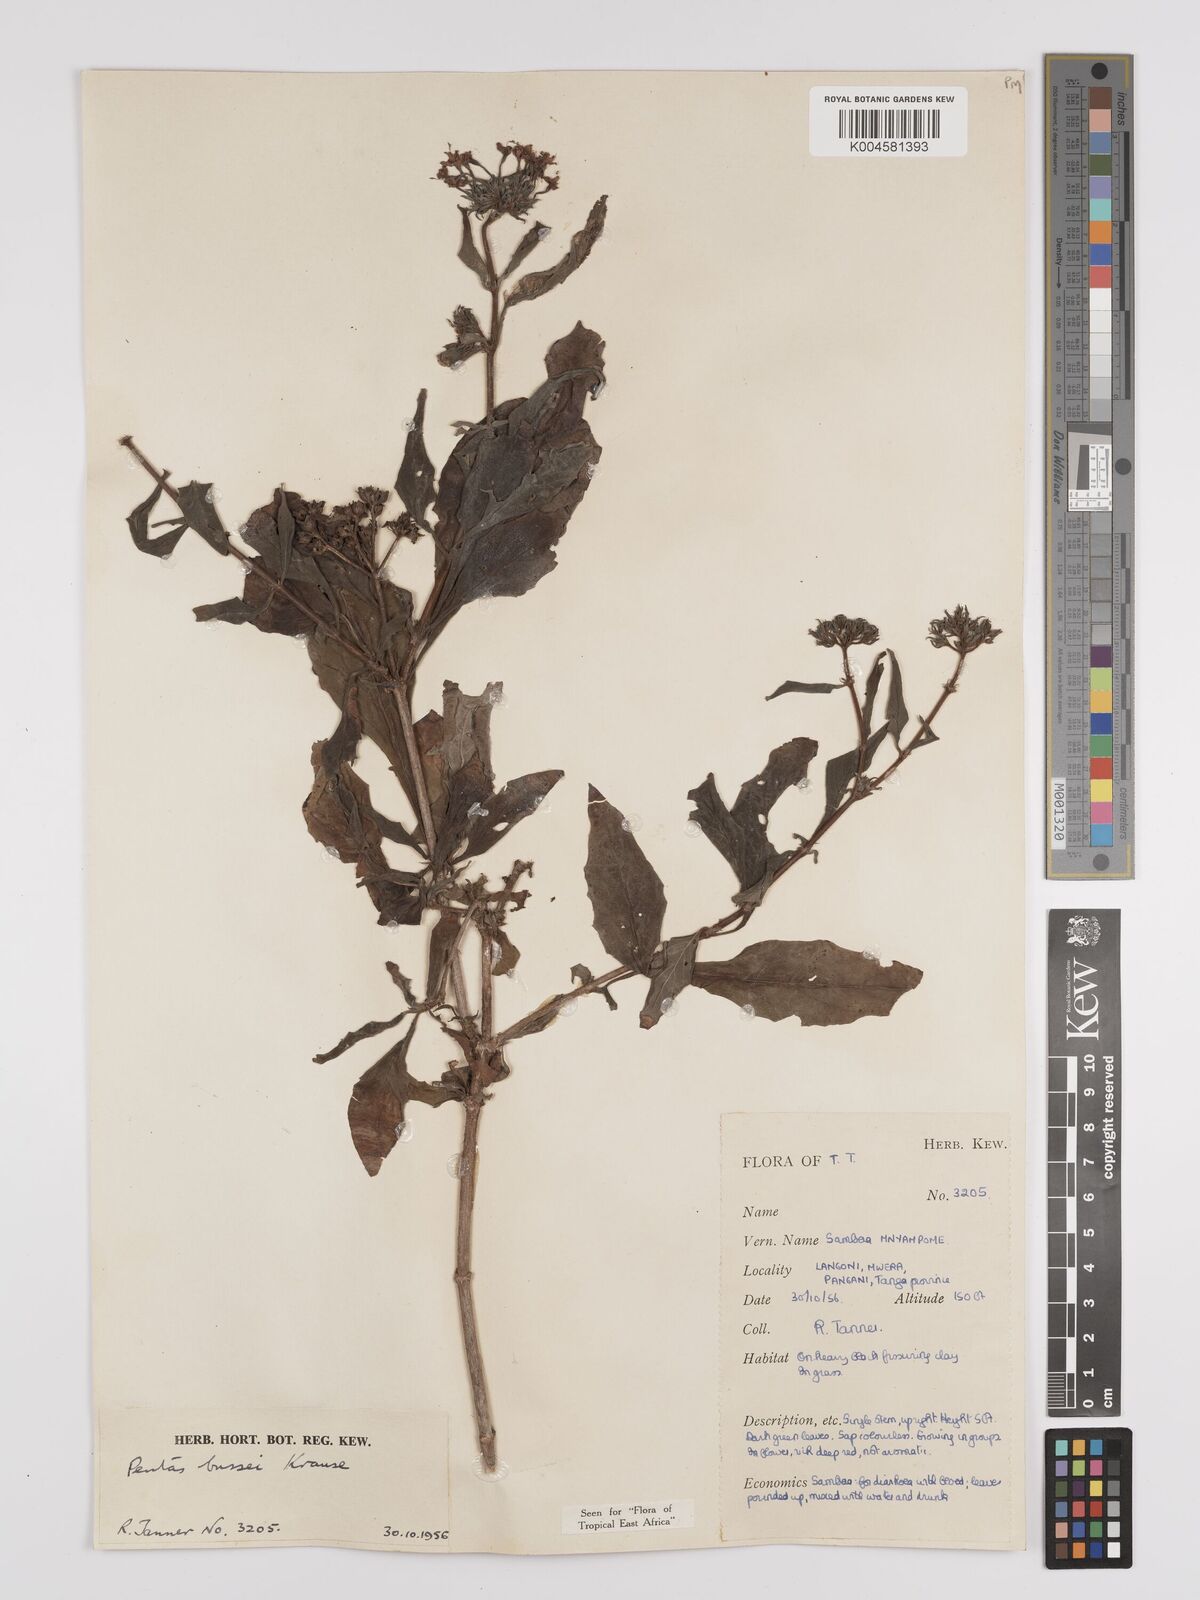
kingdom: Plantae
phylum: Tracheophyta
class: Magnoliopsida
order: Gentianales
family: Rubiaceae
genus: Rhodopentas
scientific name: Rhodopentas bussei
